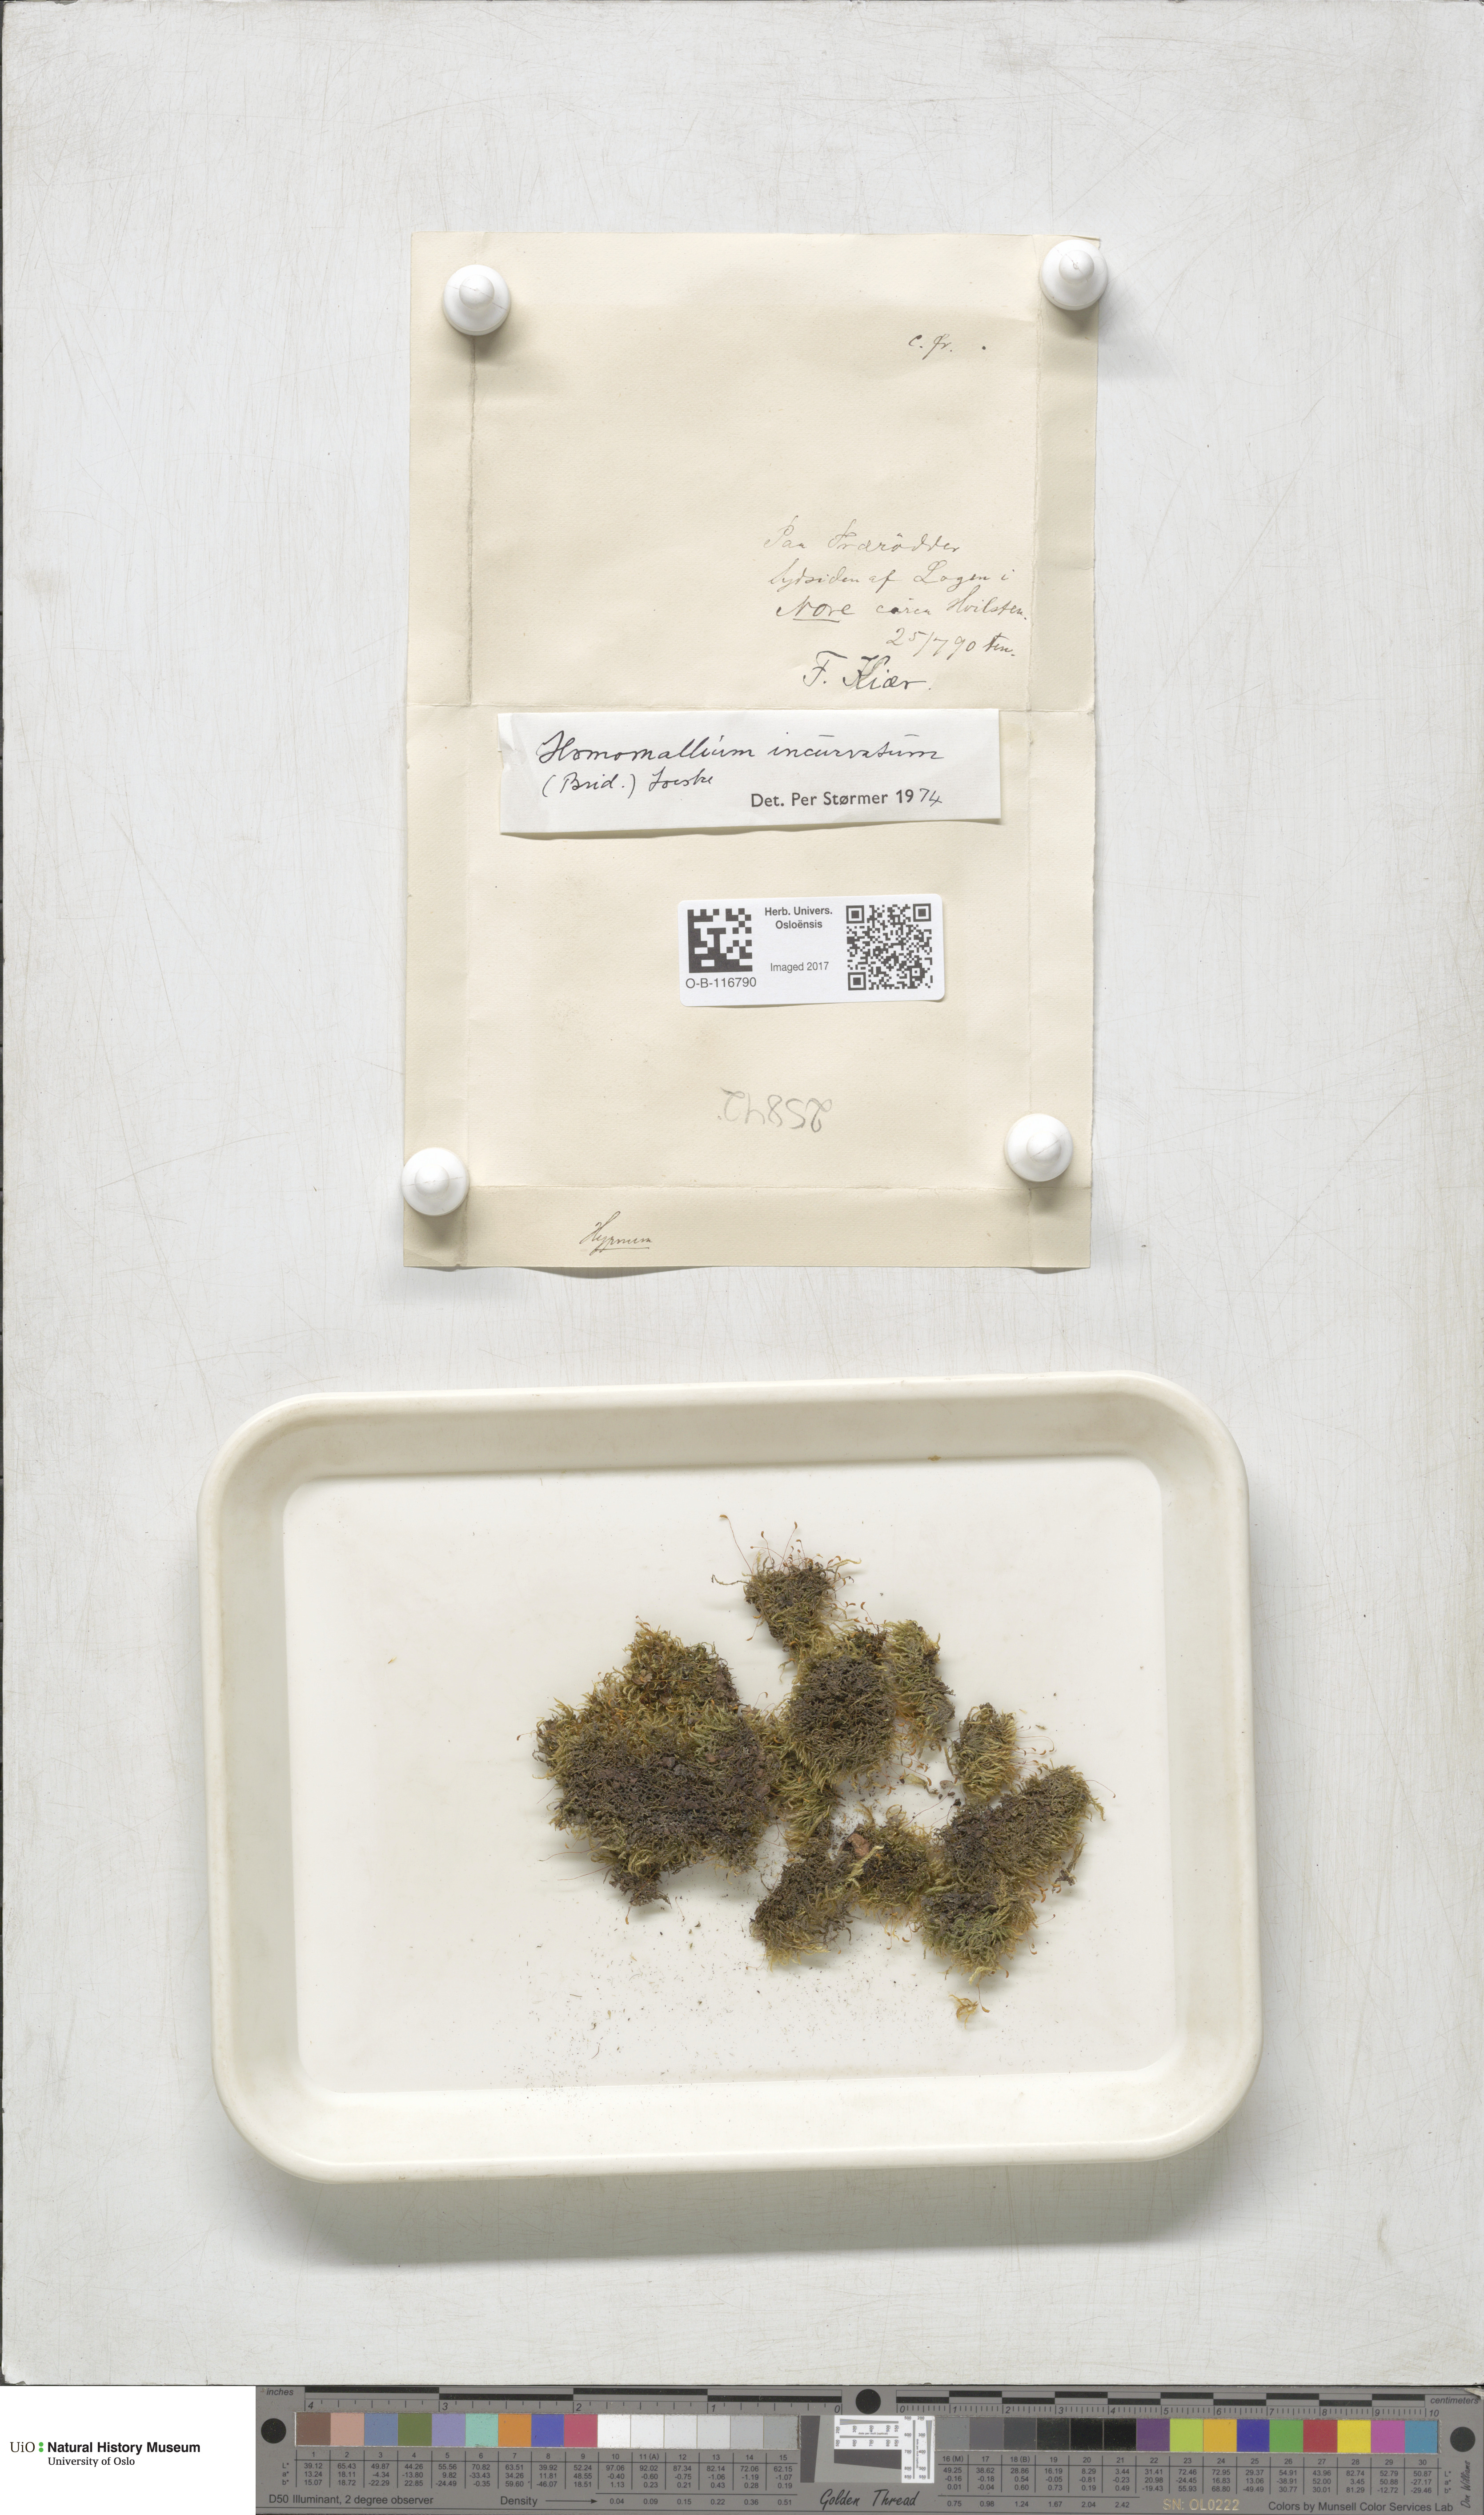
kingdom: Plantae
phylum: Bryophyta
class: Bryopsida
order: Hypnales
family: Pylaisiaceae
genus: Homomallium
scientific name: Homomallium incurvatum
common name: Incurved feather-moss
